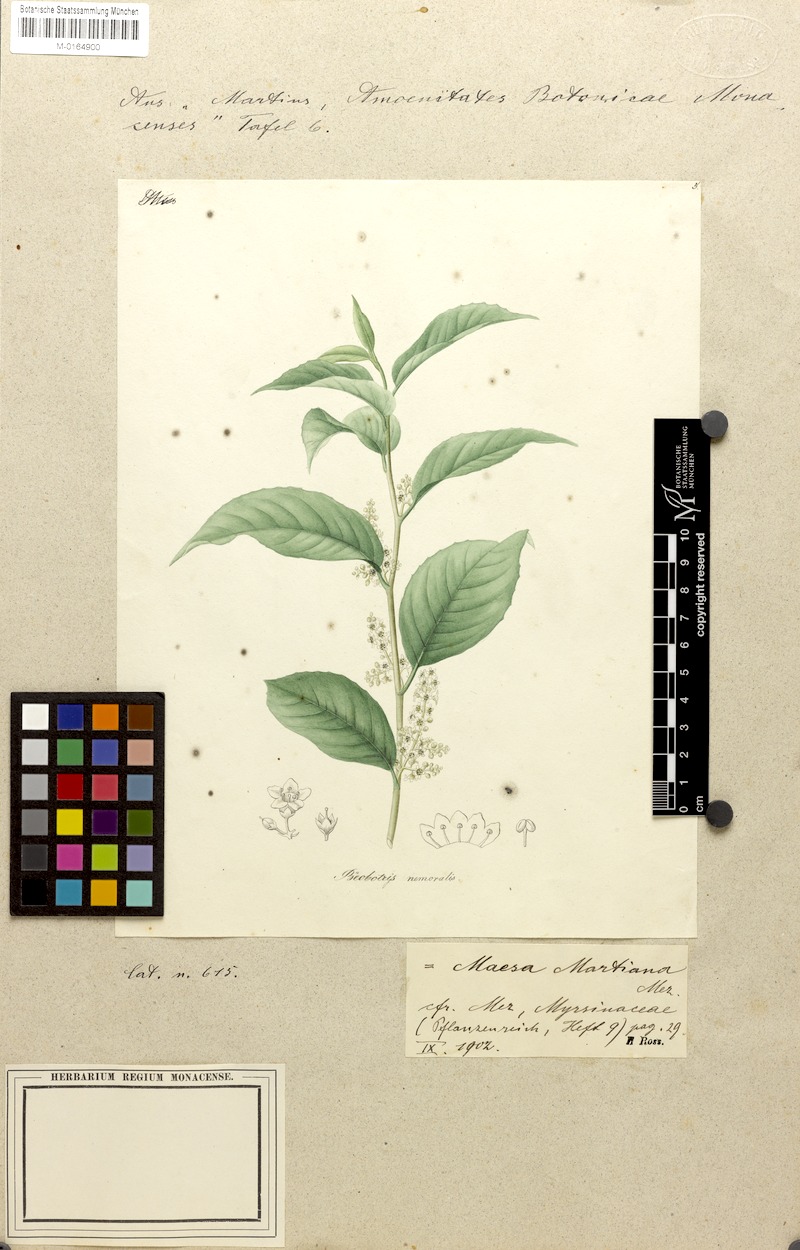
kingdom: Plantae
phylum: Tracheophyta
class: Magnoliopsida
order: Ericales
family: Primulaceae
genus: Maesa
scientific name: Maesa martiana
